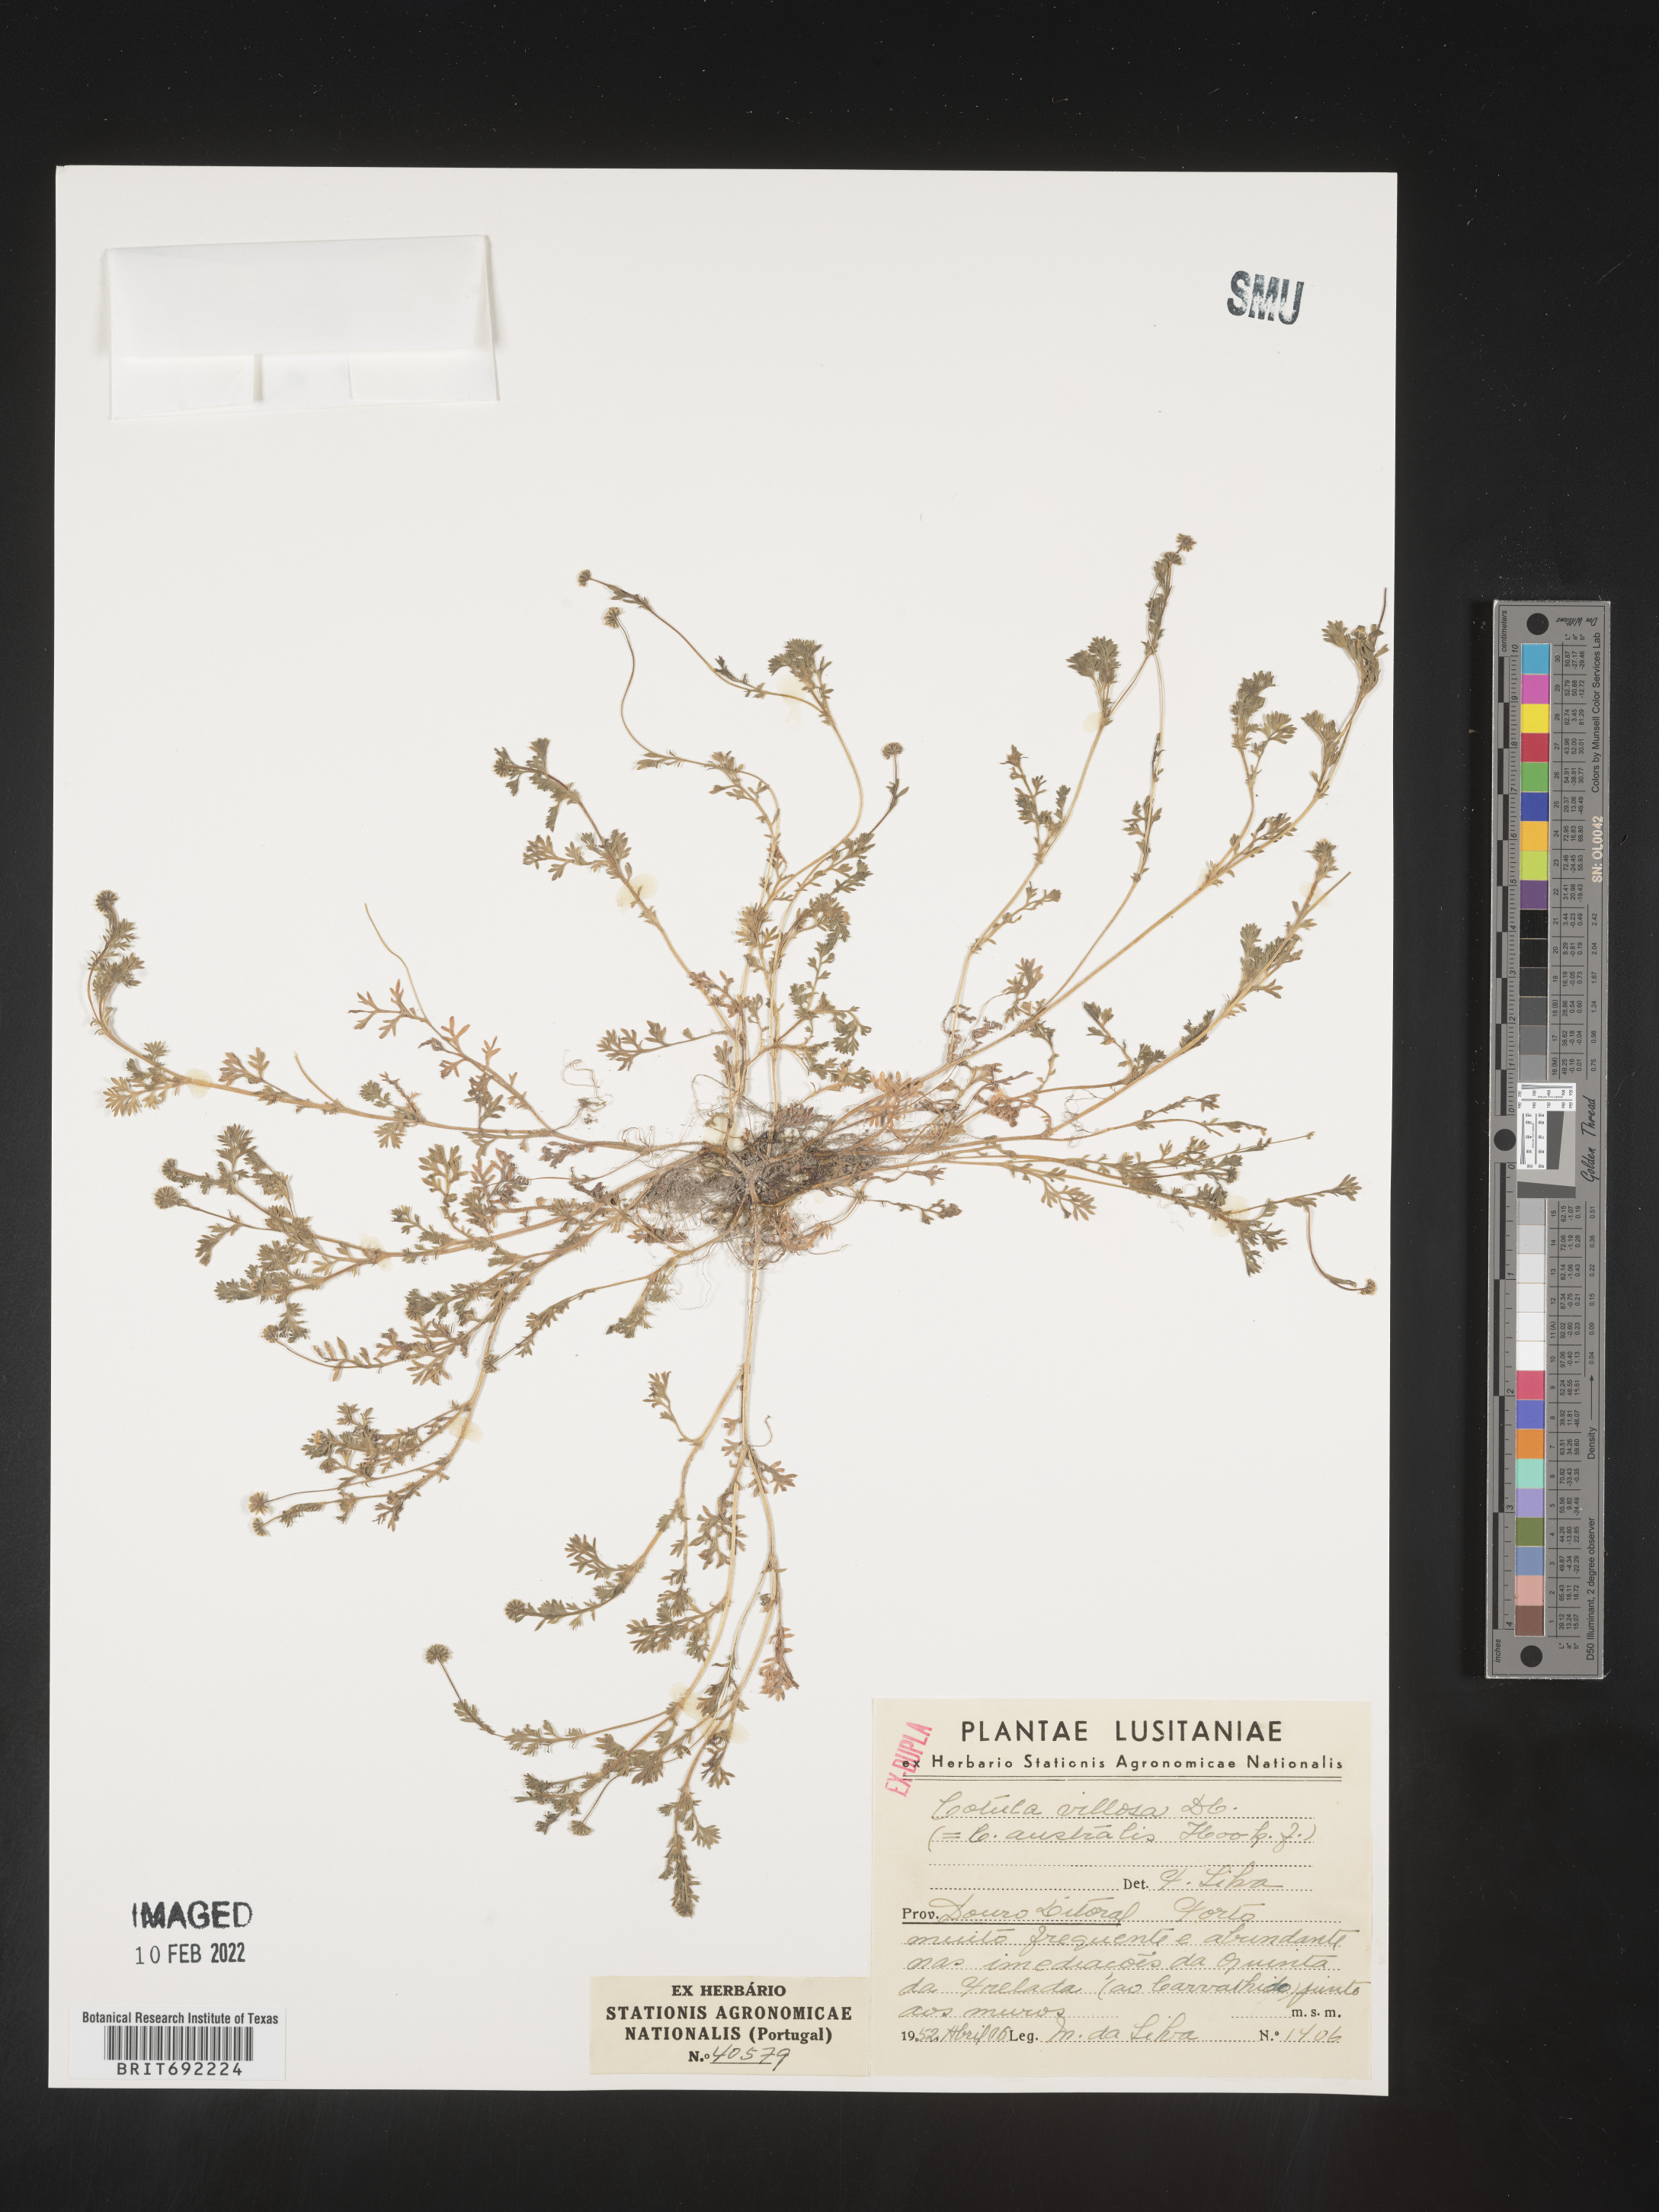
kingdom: Plantae
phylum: Tracheophyta
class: Magnoliopsida
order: Asterales
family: Asteraceae
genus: Cotula
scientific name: Cotula
